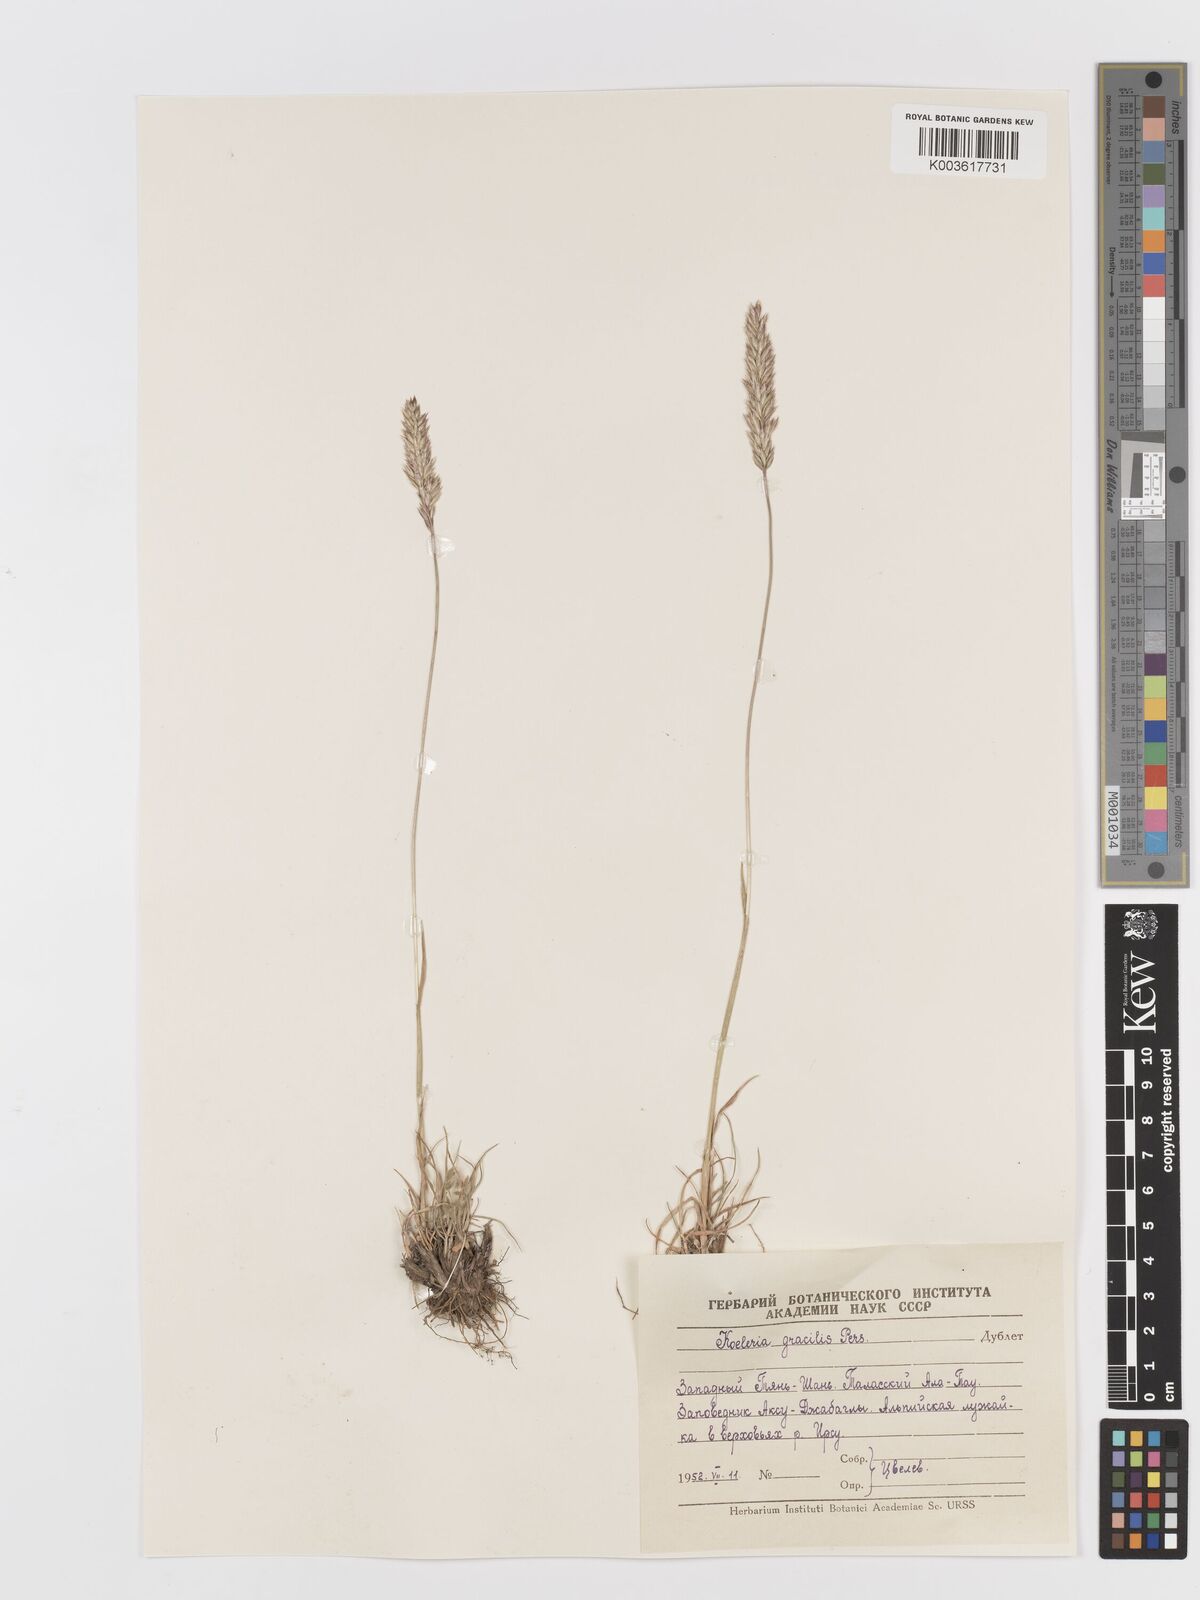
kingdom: Plantae
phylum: Tracheophyta
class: Liliopsida
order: Poales
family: Poaceae
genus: Koeleria
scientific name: Koeleria splendens
